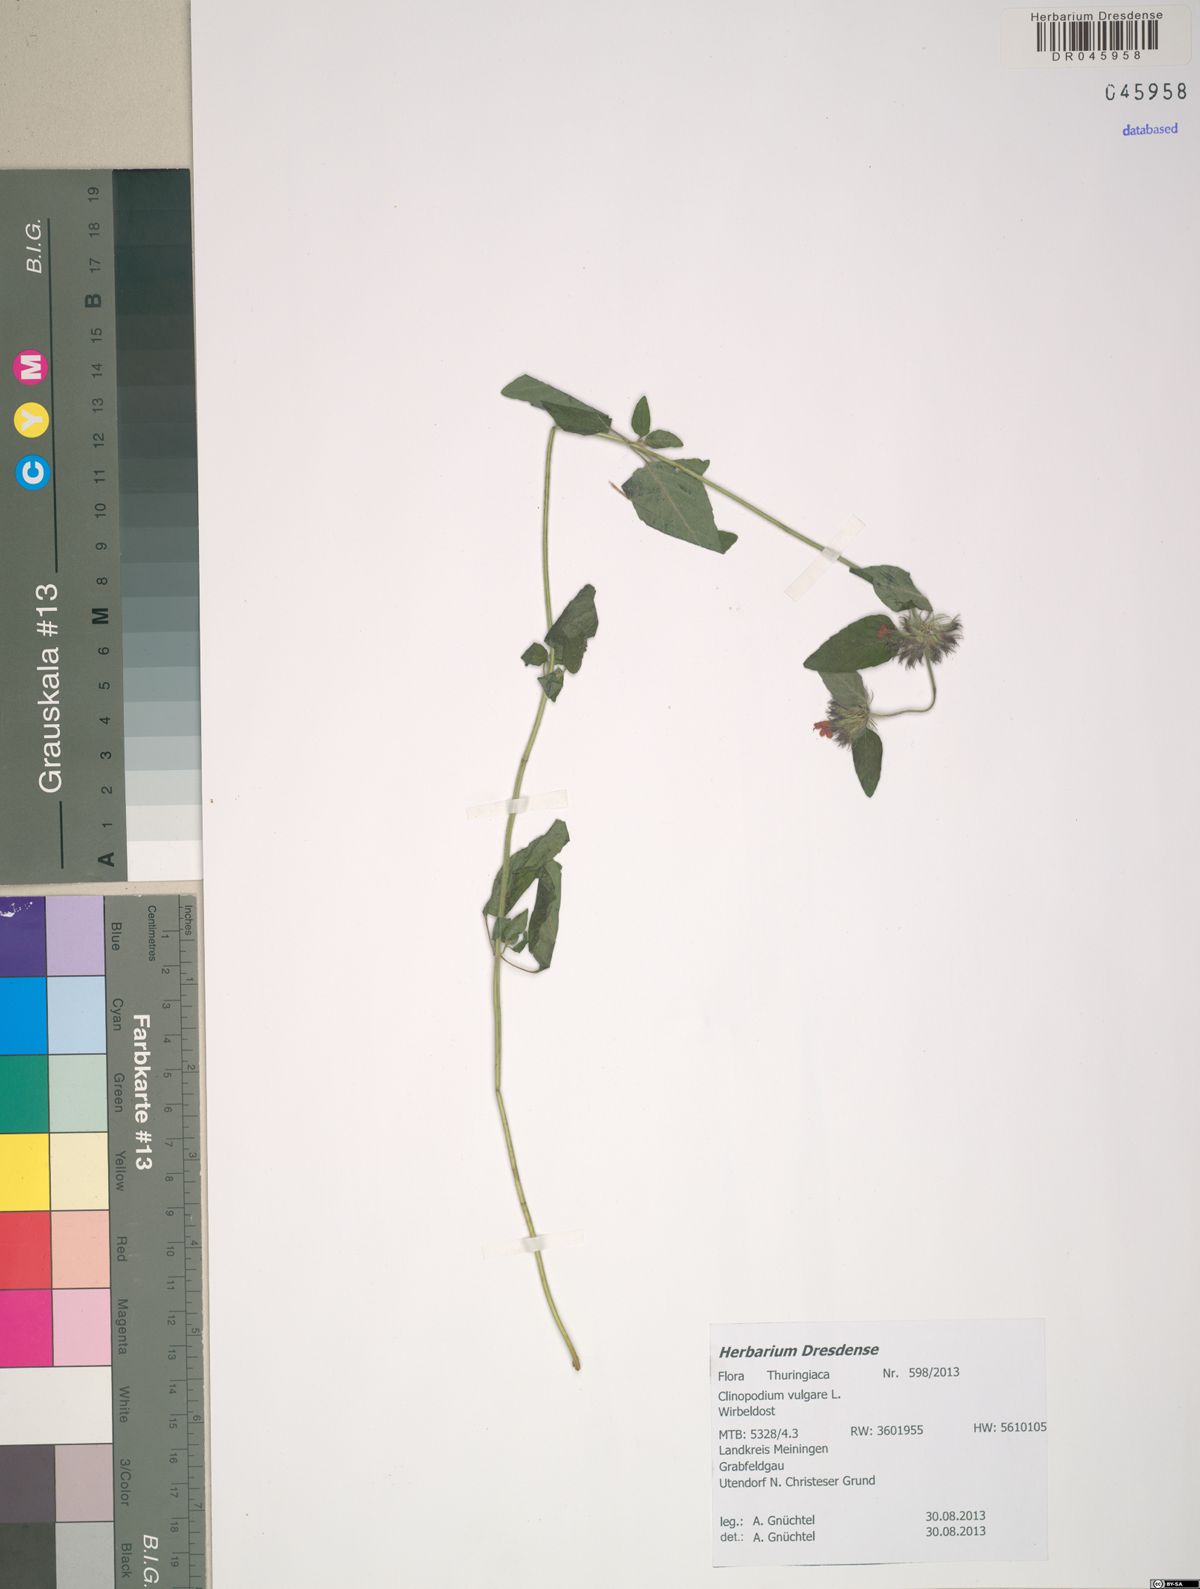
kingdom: Plantae
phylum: Tracheophyta
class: Magnoliopsida
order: Lamiales
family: Lamiaceae
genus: Clinopodium
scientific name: Clinopodium vulgare
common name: Wild basil
